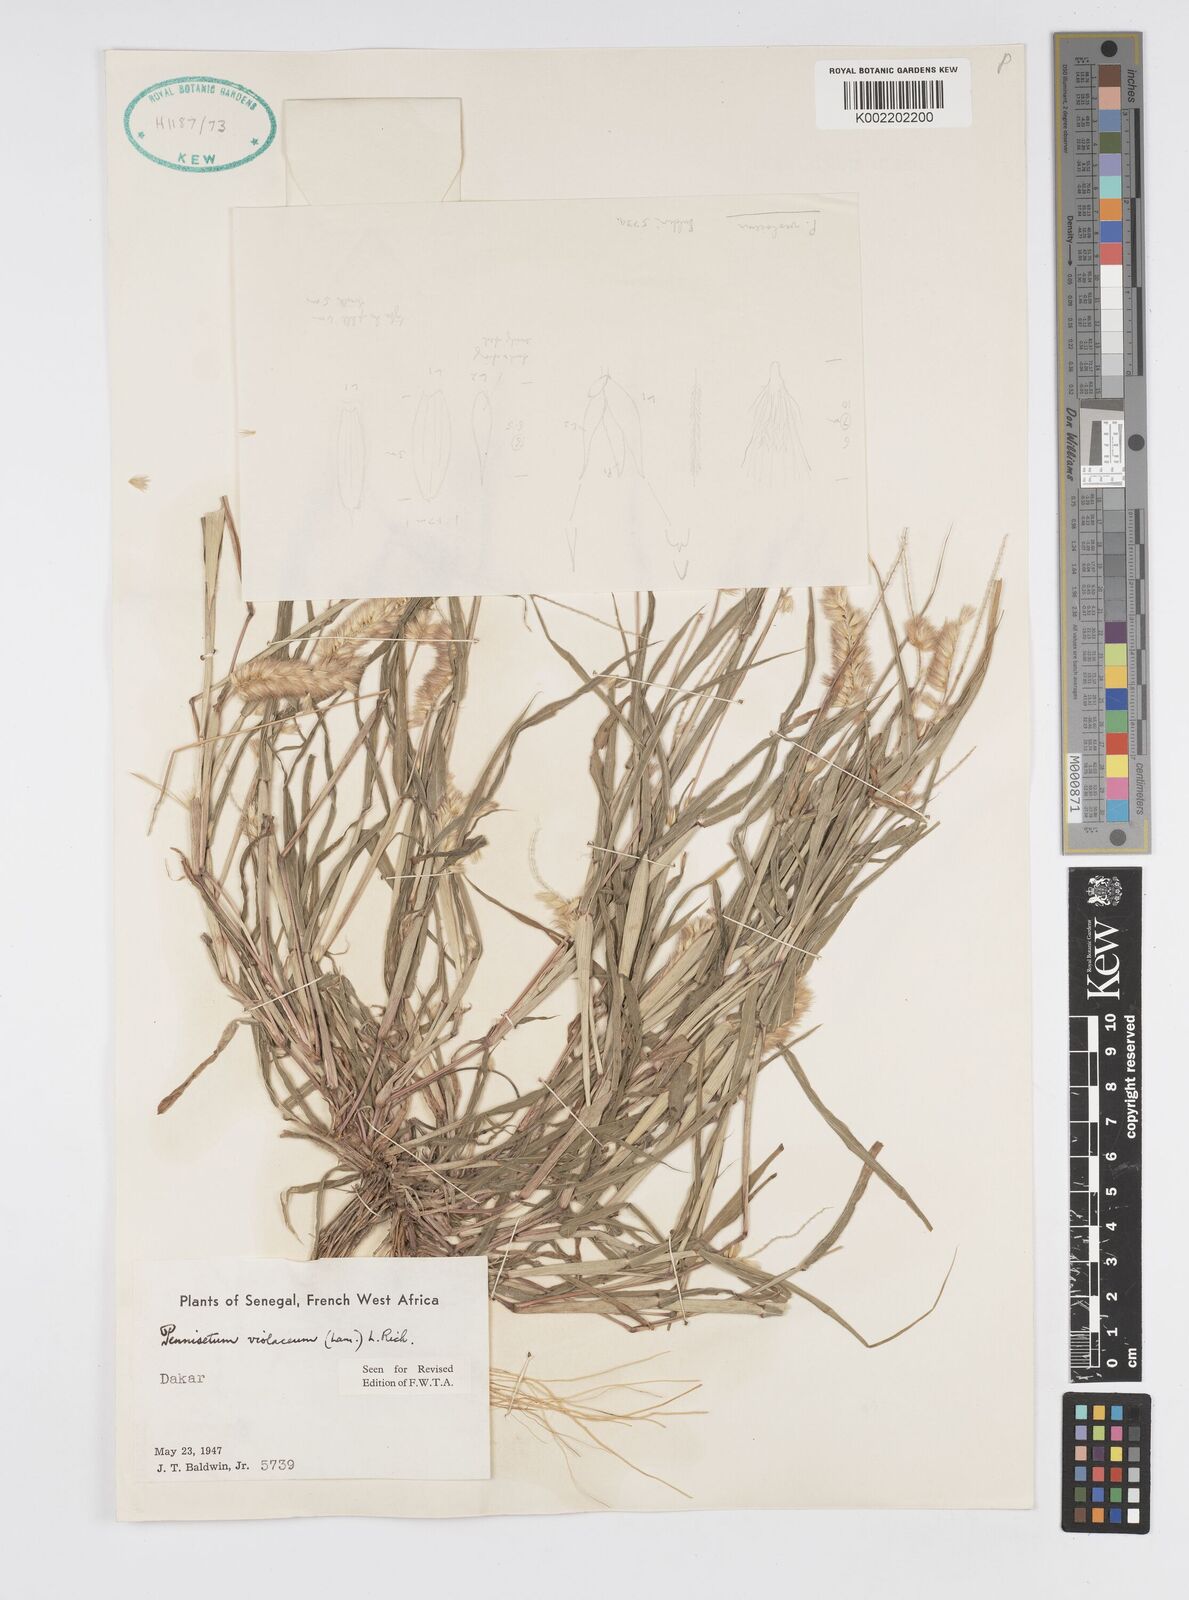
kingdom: Plantae
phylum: Tracheophyta
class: Liliopsida
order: Poales
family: Poaceae
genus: Cenchrus
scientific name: Cenchrus violaceus
